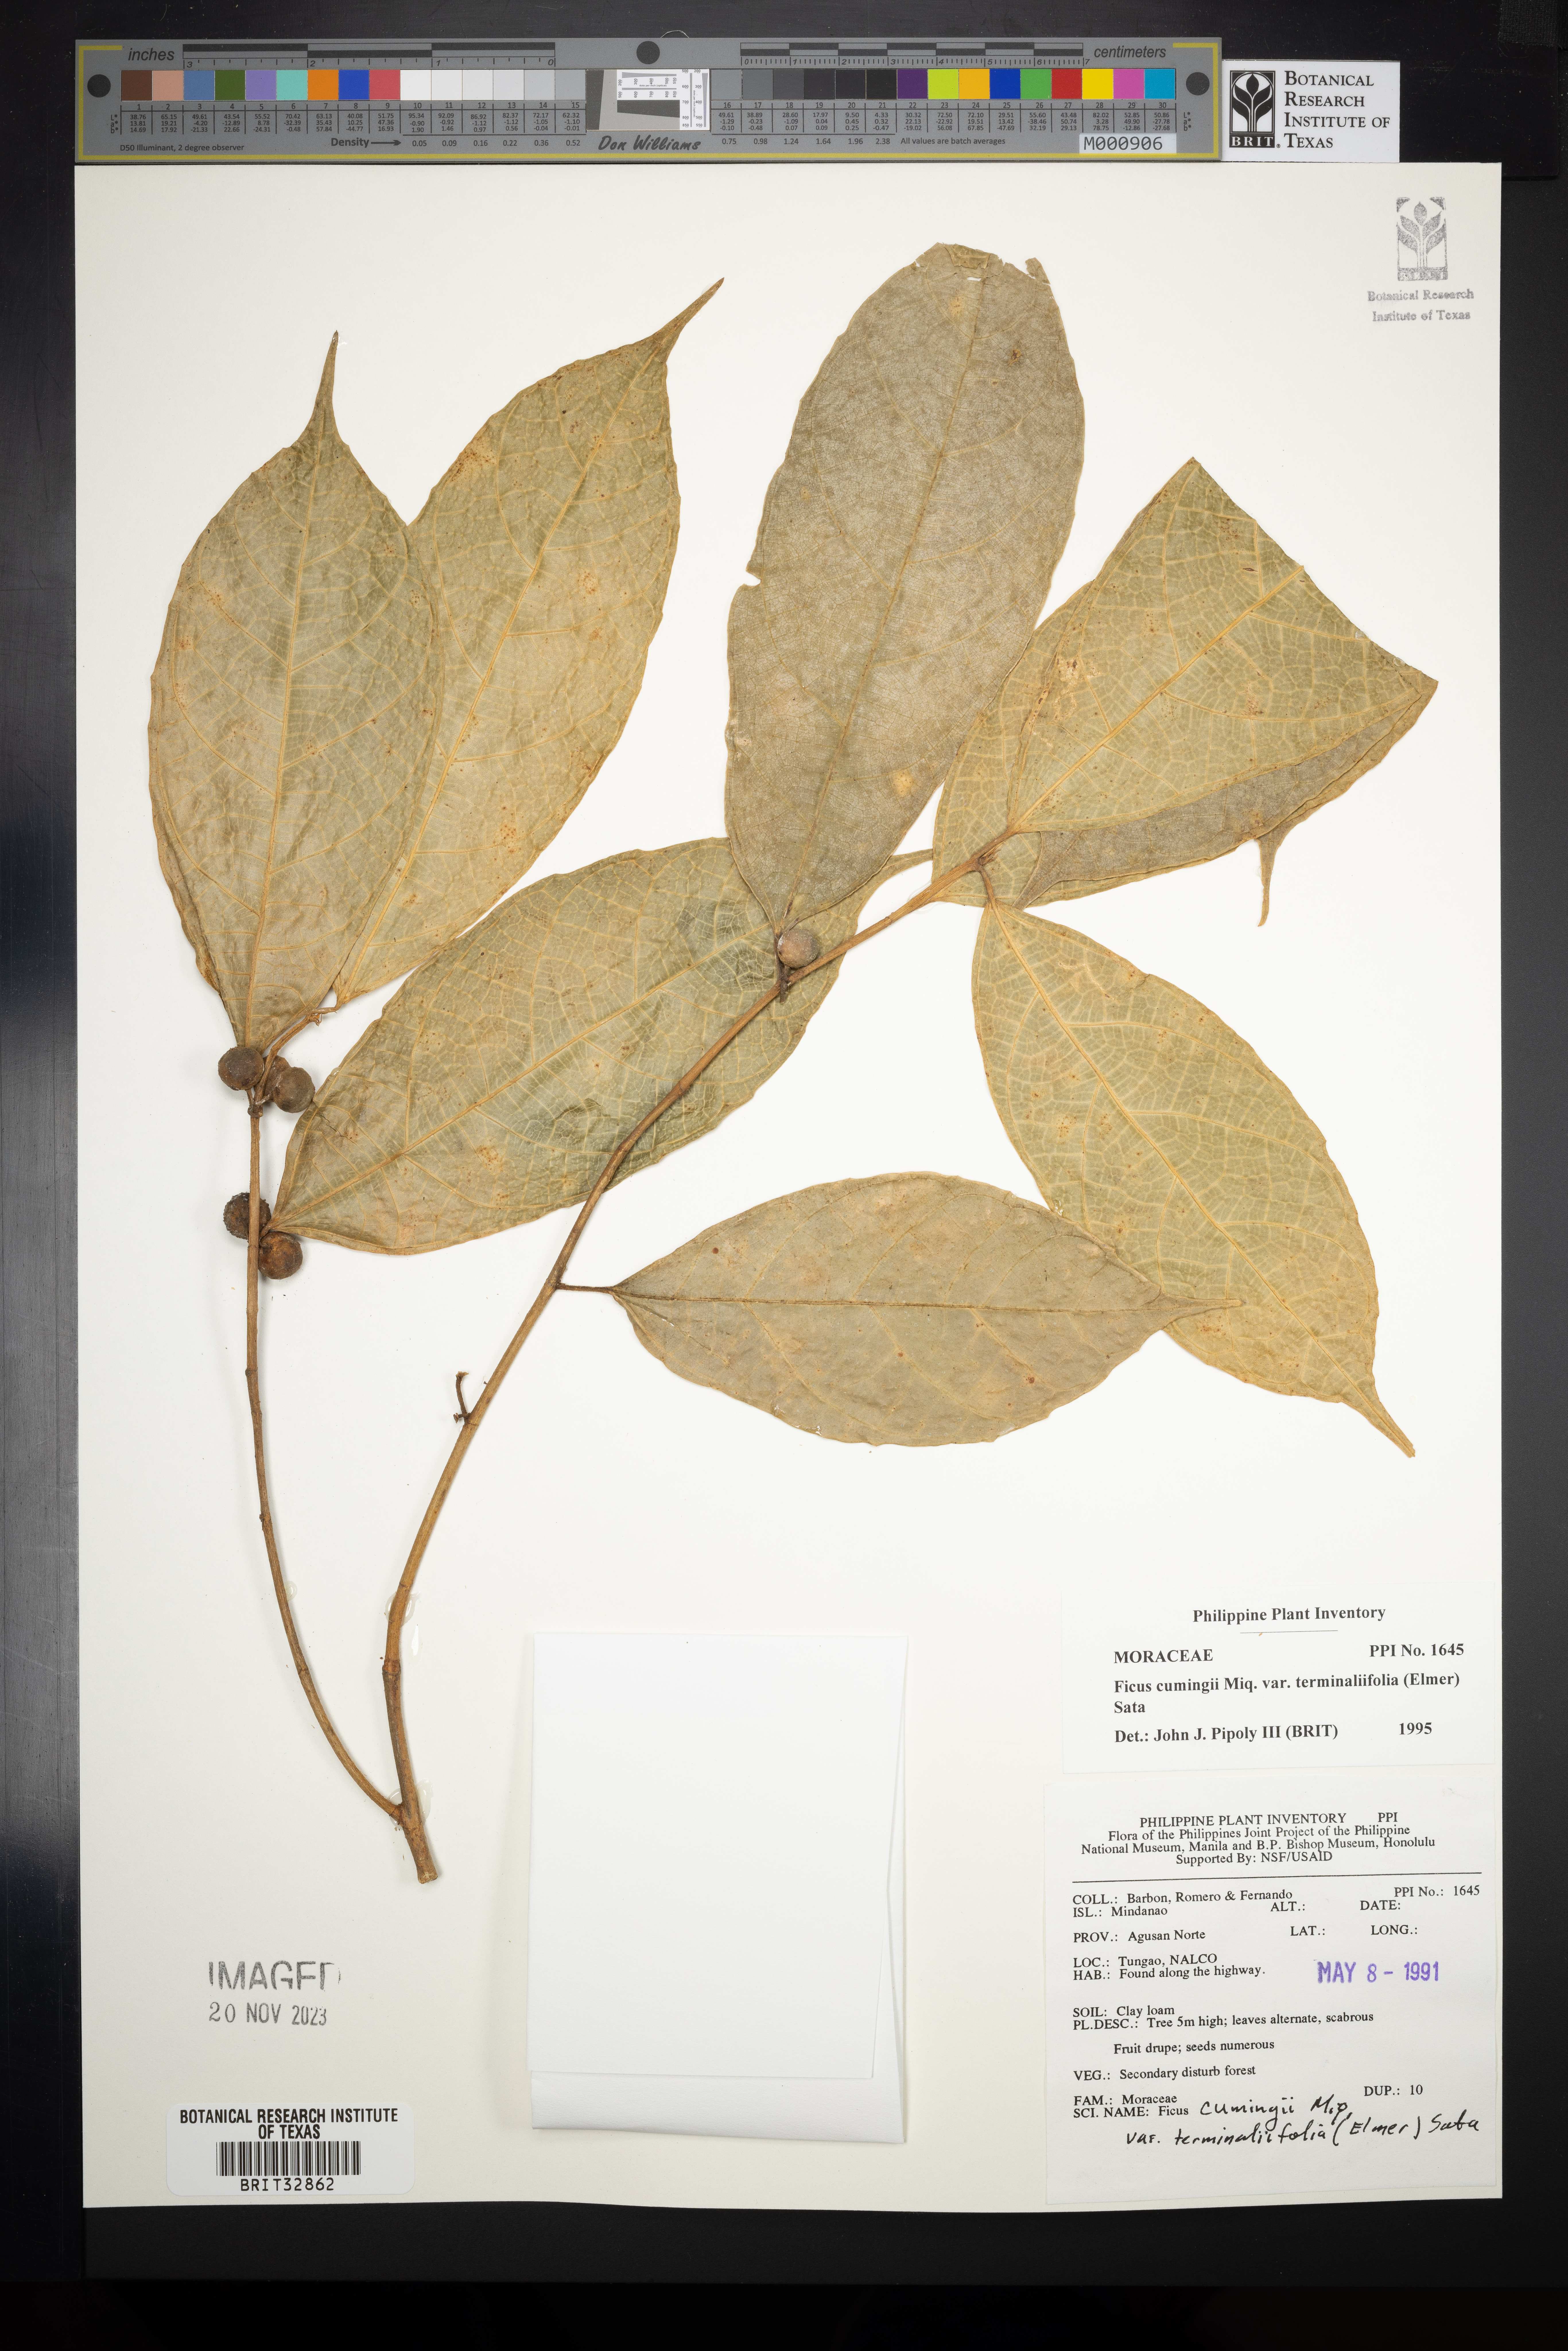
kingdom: Plantae
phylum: Tracheophyta
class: Magnoliopsida
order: Rosales
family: Moraceae
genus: Ficus
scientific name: Ficus cumingii
